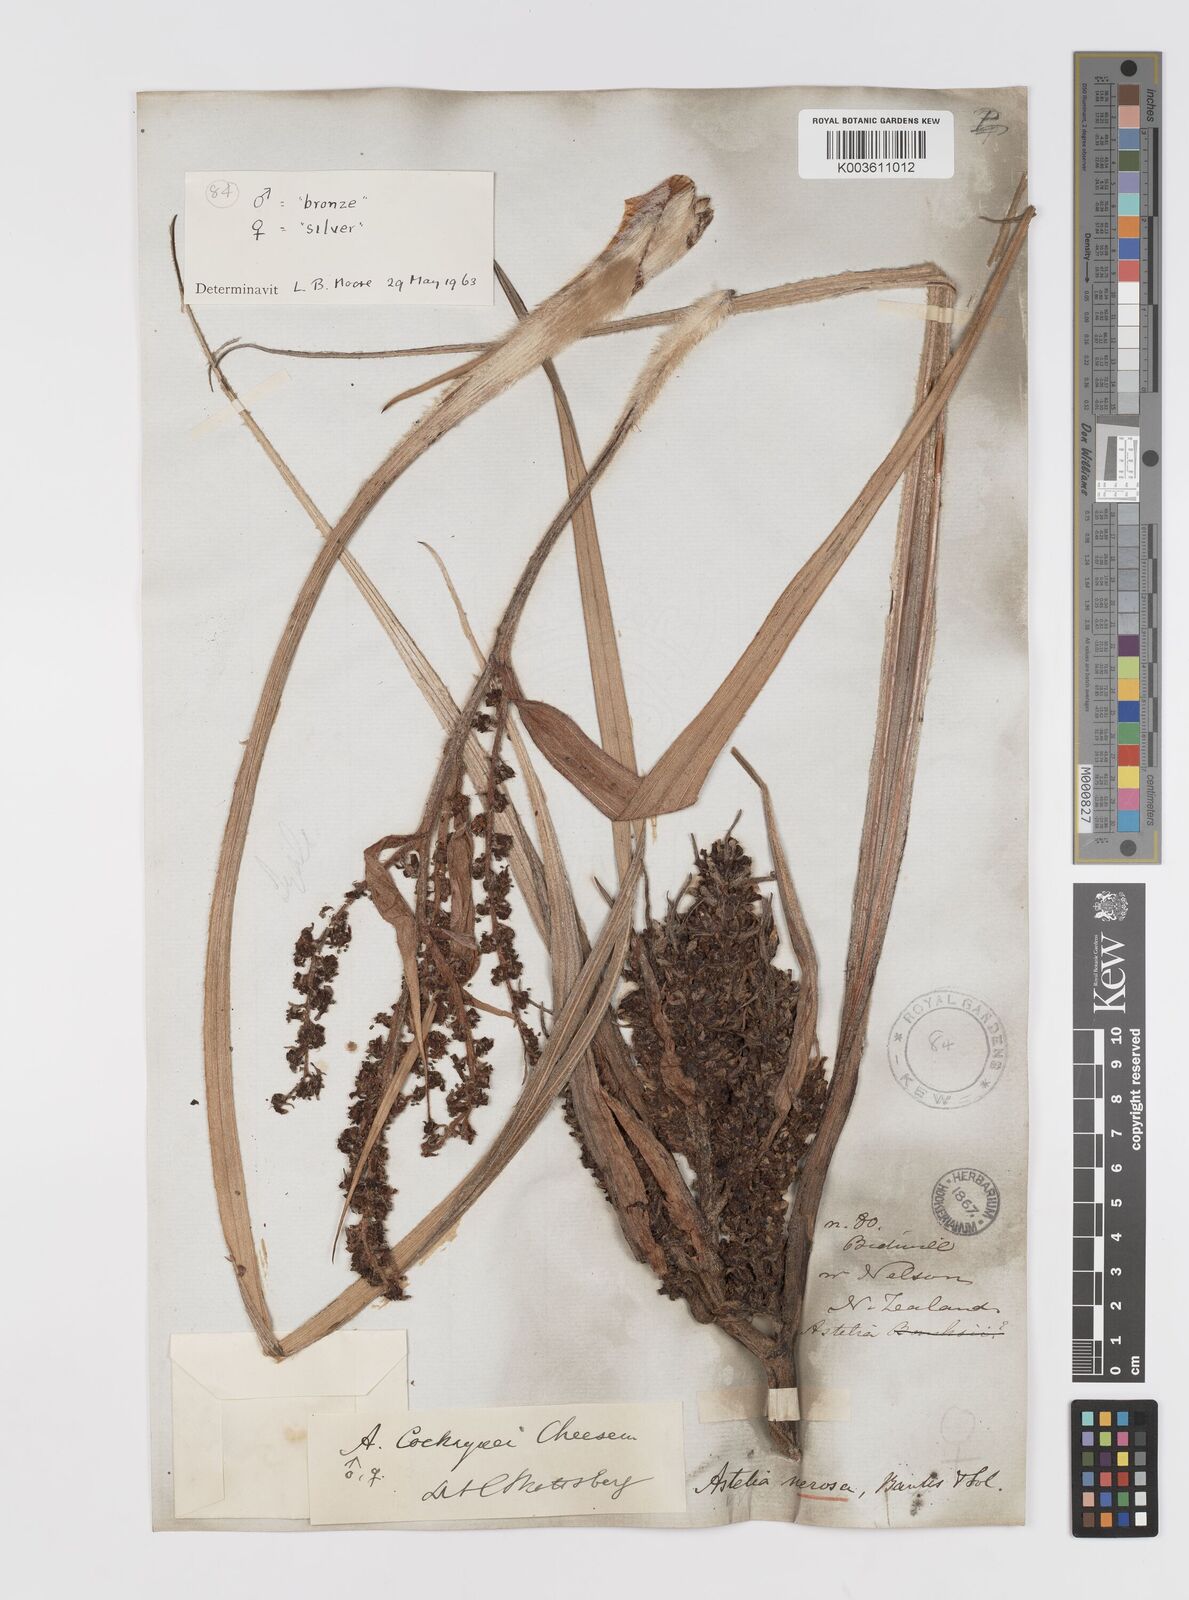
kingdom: Plantae
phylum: Tracheophyta
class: Liliopsida
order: Asparagales
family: Asteliaceae
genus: Astelia
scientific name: Astelia nervosa
